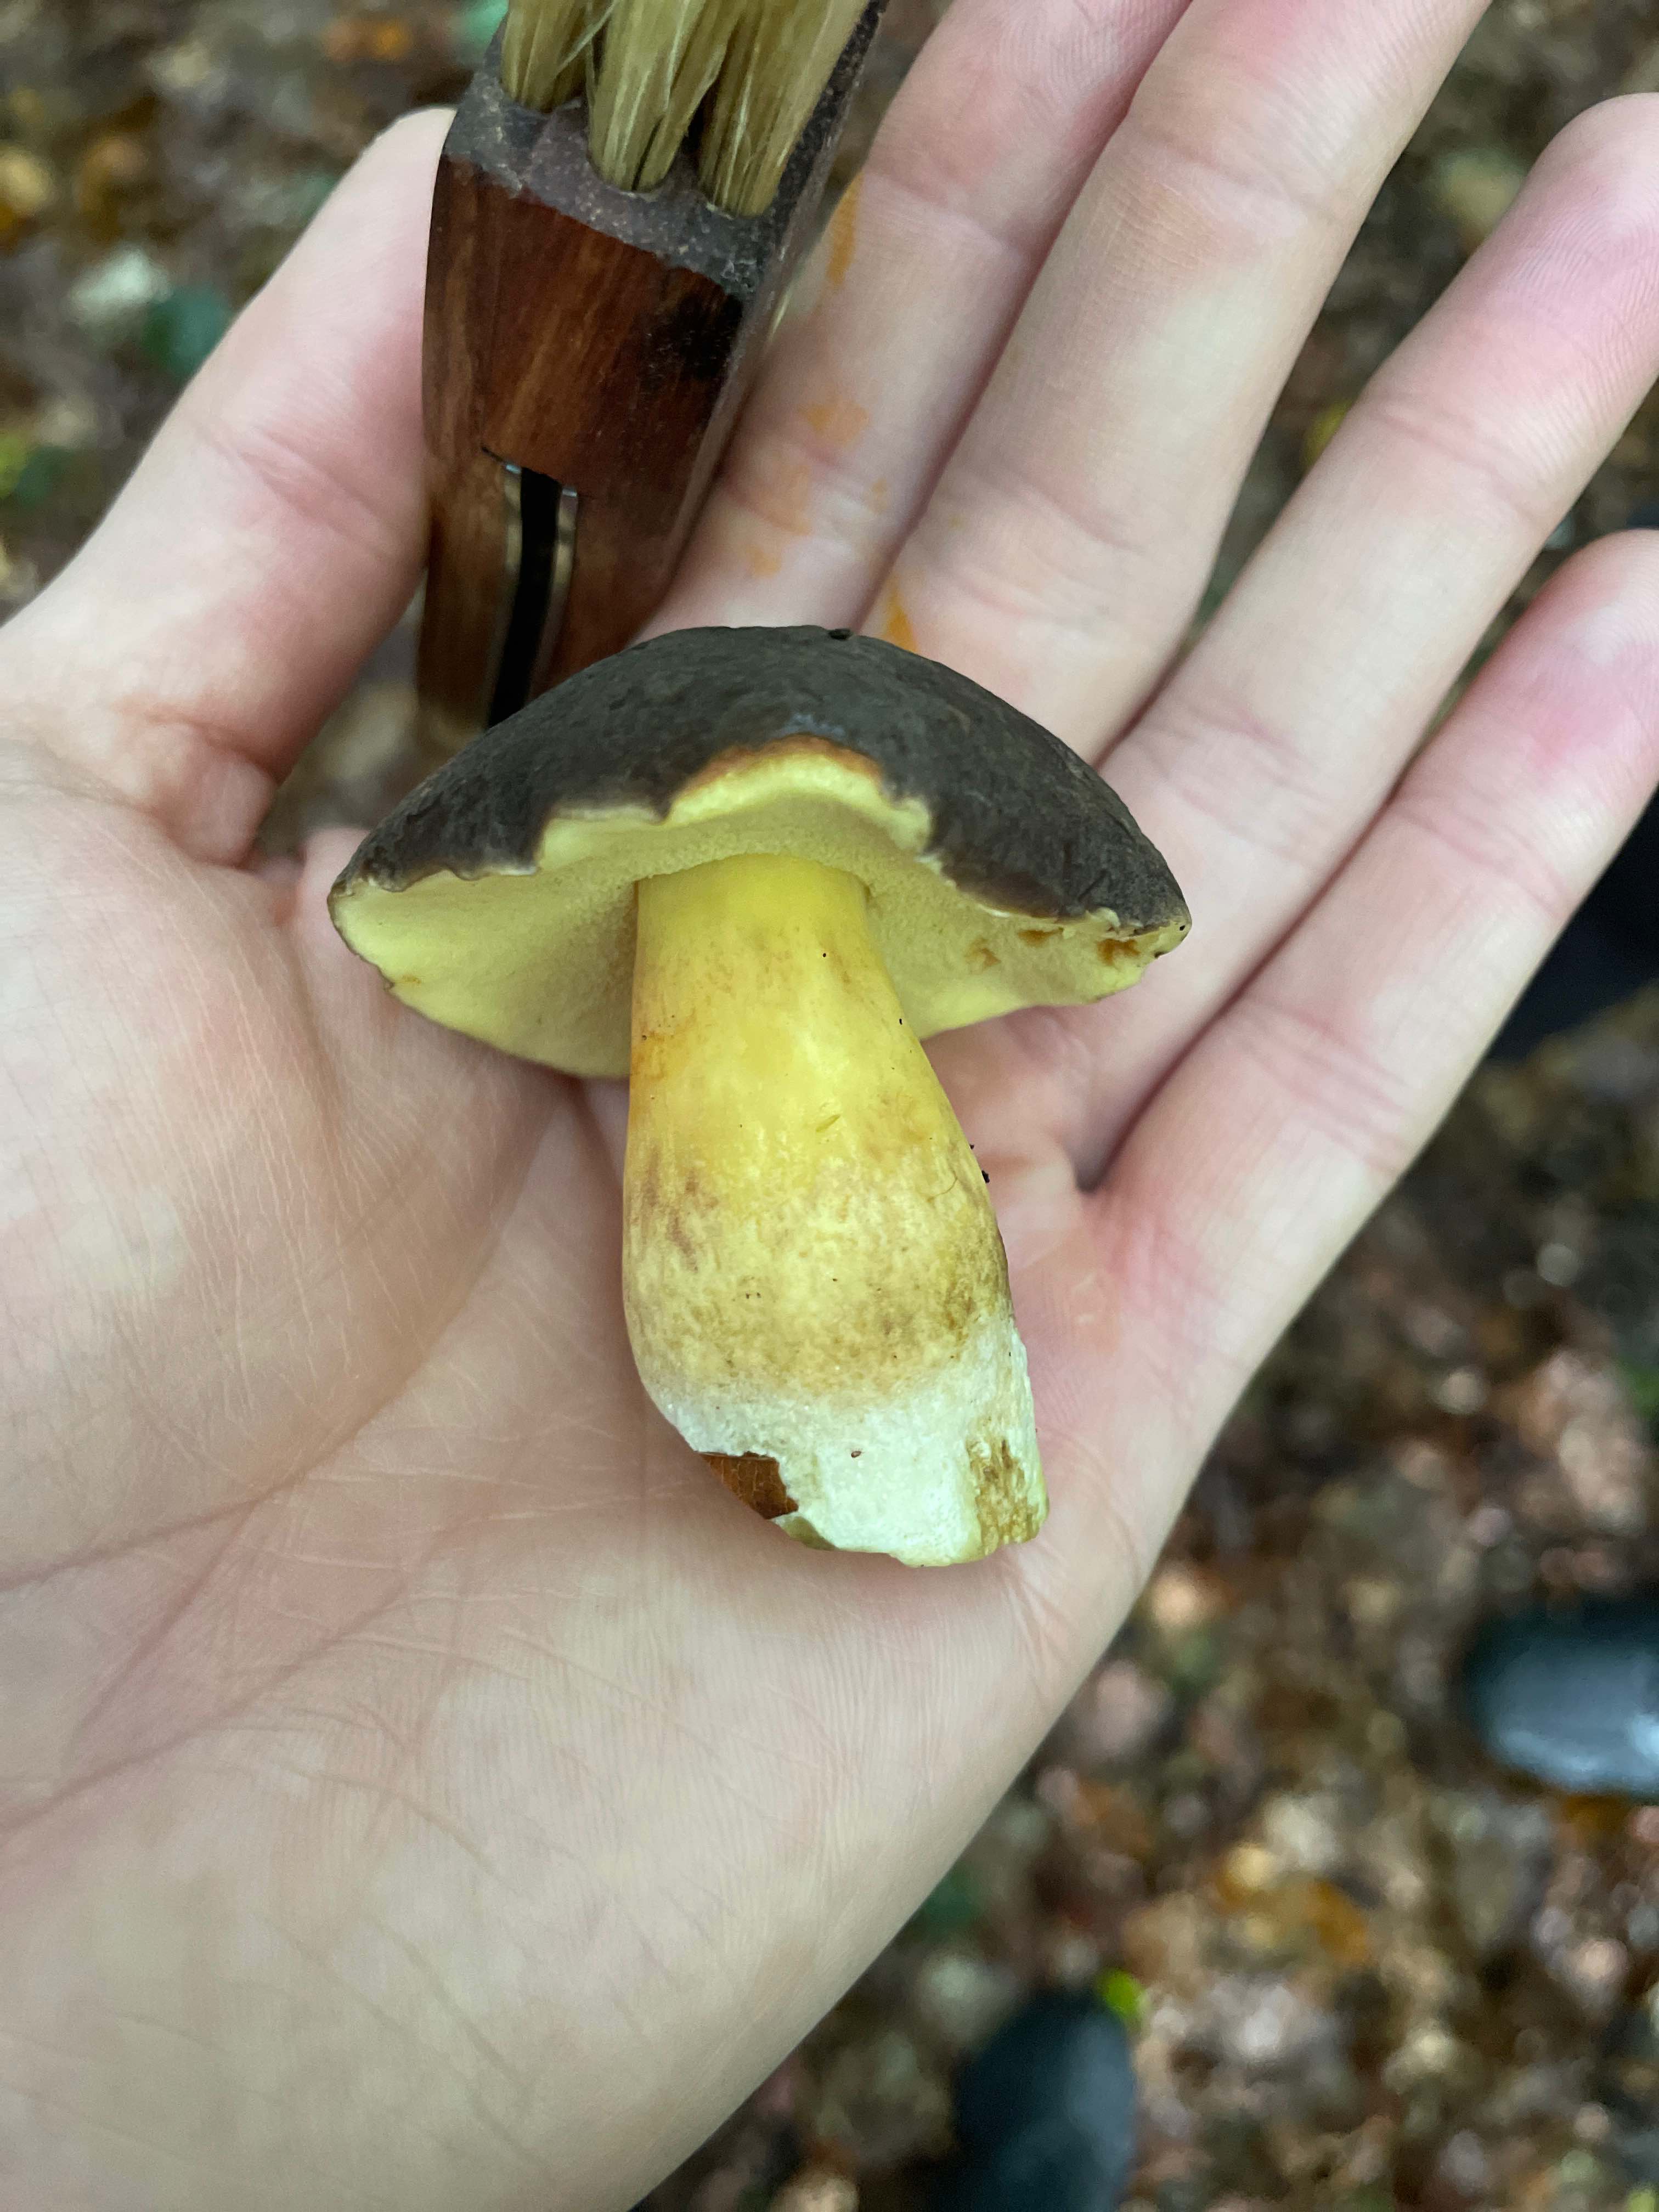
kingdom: Fungi
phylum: Basidiomycota
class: Agaricomycetes
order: Boletales
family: Boletaceae
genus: Xerocomellus
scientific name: Xerocomellus
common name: dværgrørhat
